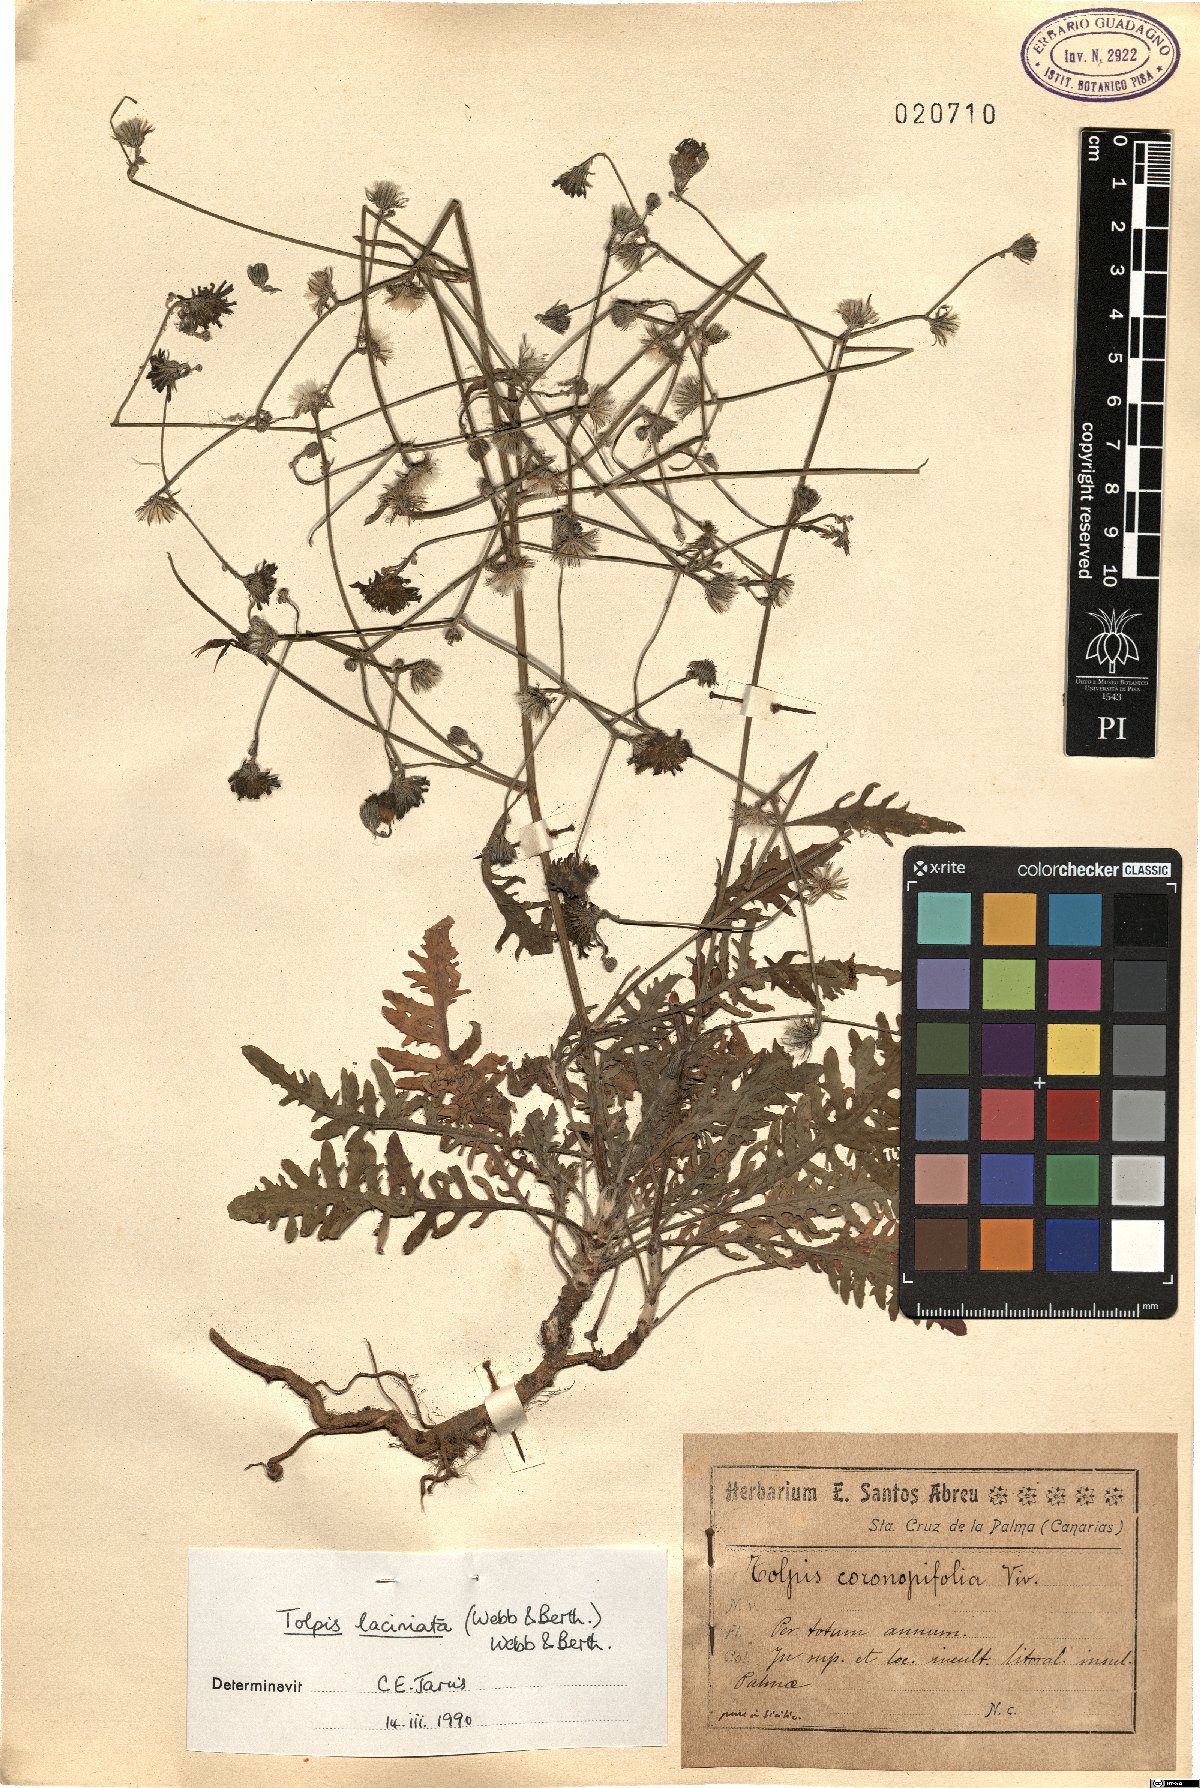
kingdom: Plantae
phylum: Tracheophyta
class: Magnoliopsida
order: Asterales
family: Asteraceae
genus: Tolpis
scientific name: Tolpis laciniata
